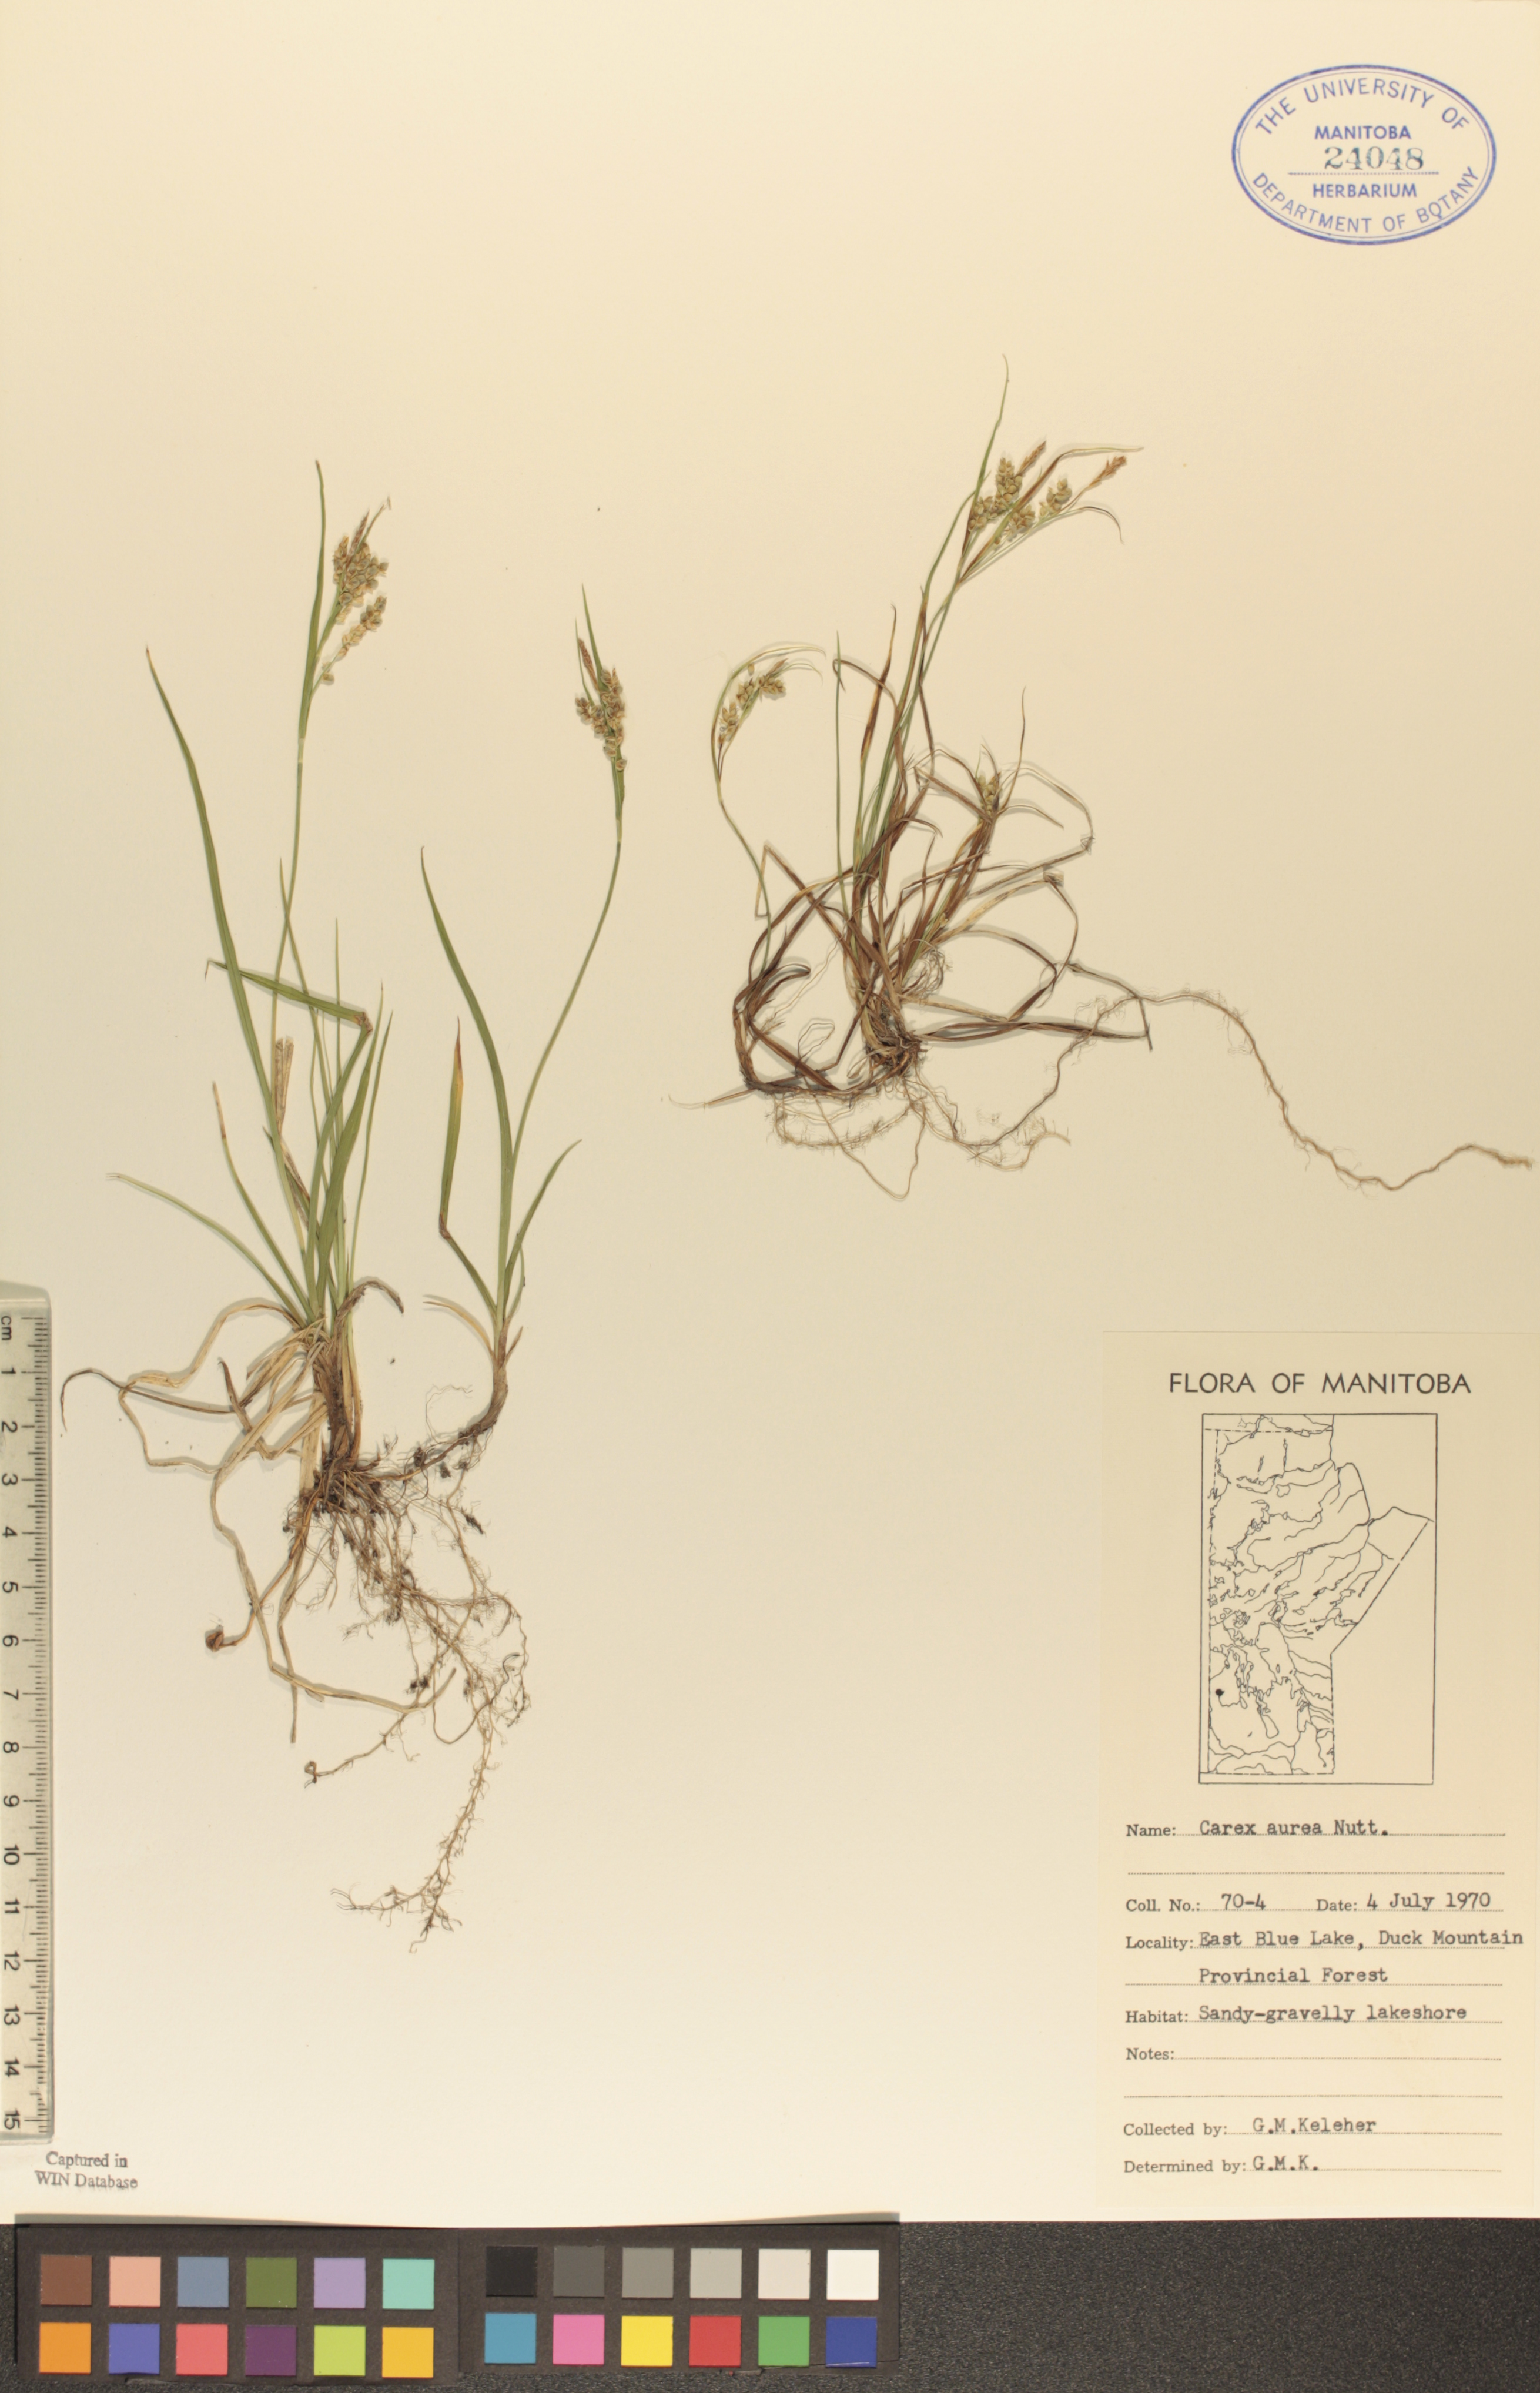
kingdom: Plantae
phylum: Tracheophyta
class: Liliopsida
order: Poales
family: Cyperaceae
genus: Carex
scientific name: Carex aurea
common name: Golden sedge
